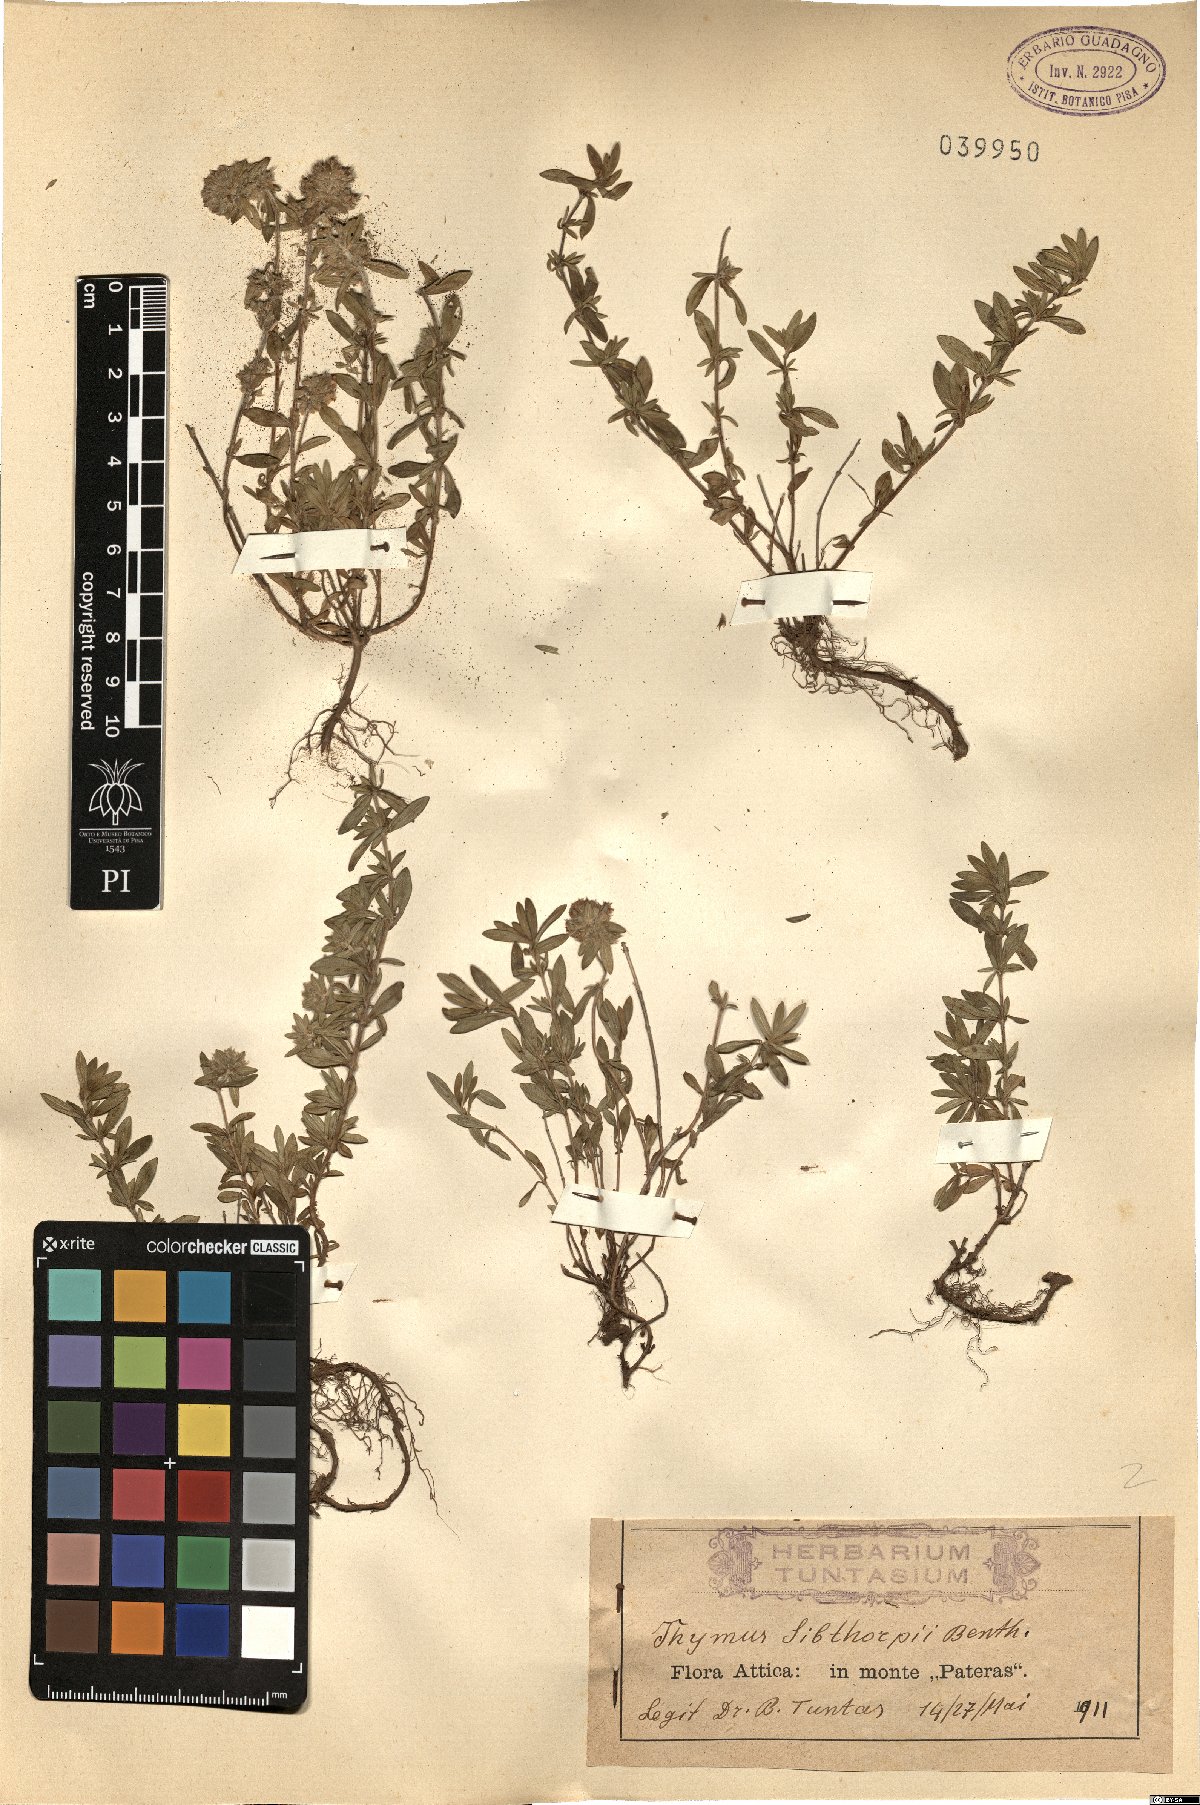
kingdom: Plantae
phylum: Tracheophyta
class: Magnoliopsida
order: Lamiales
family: Lamiaceae
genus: Thymus
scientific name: Thymus sibthorpii
